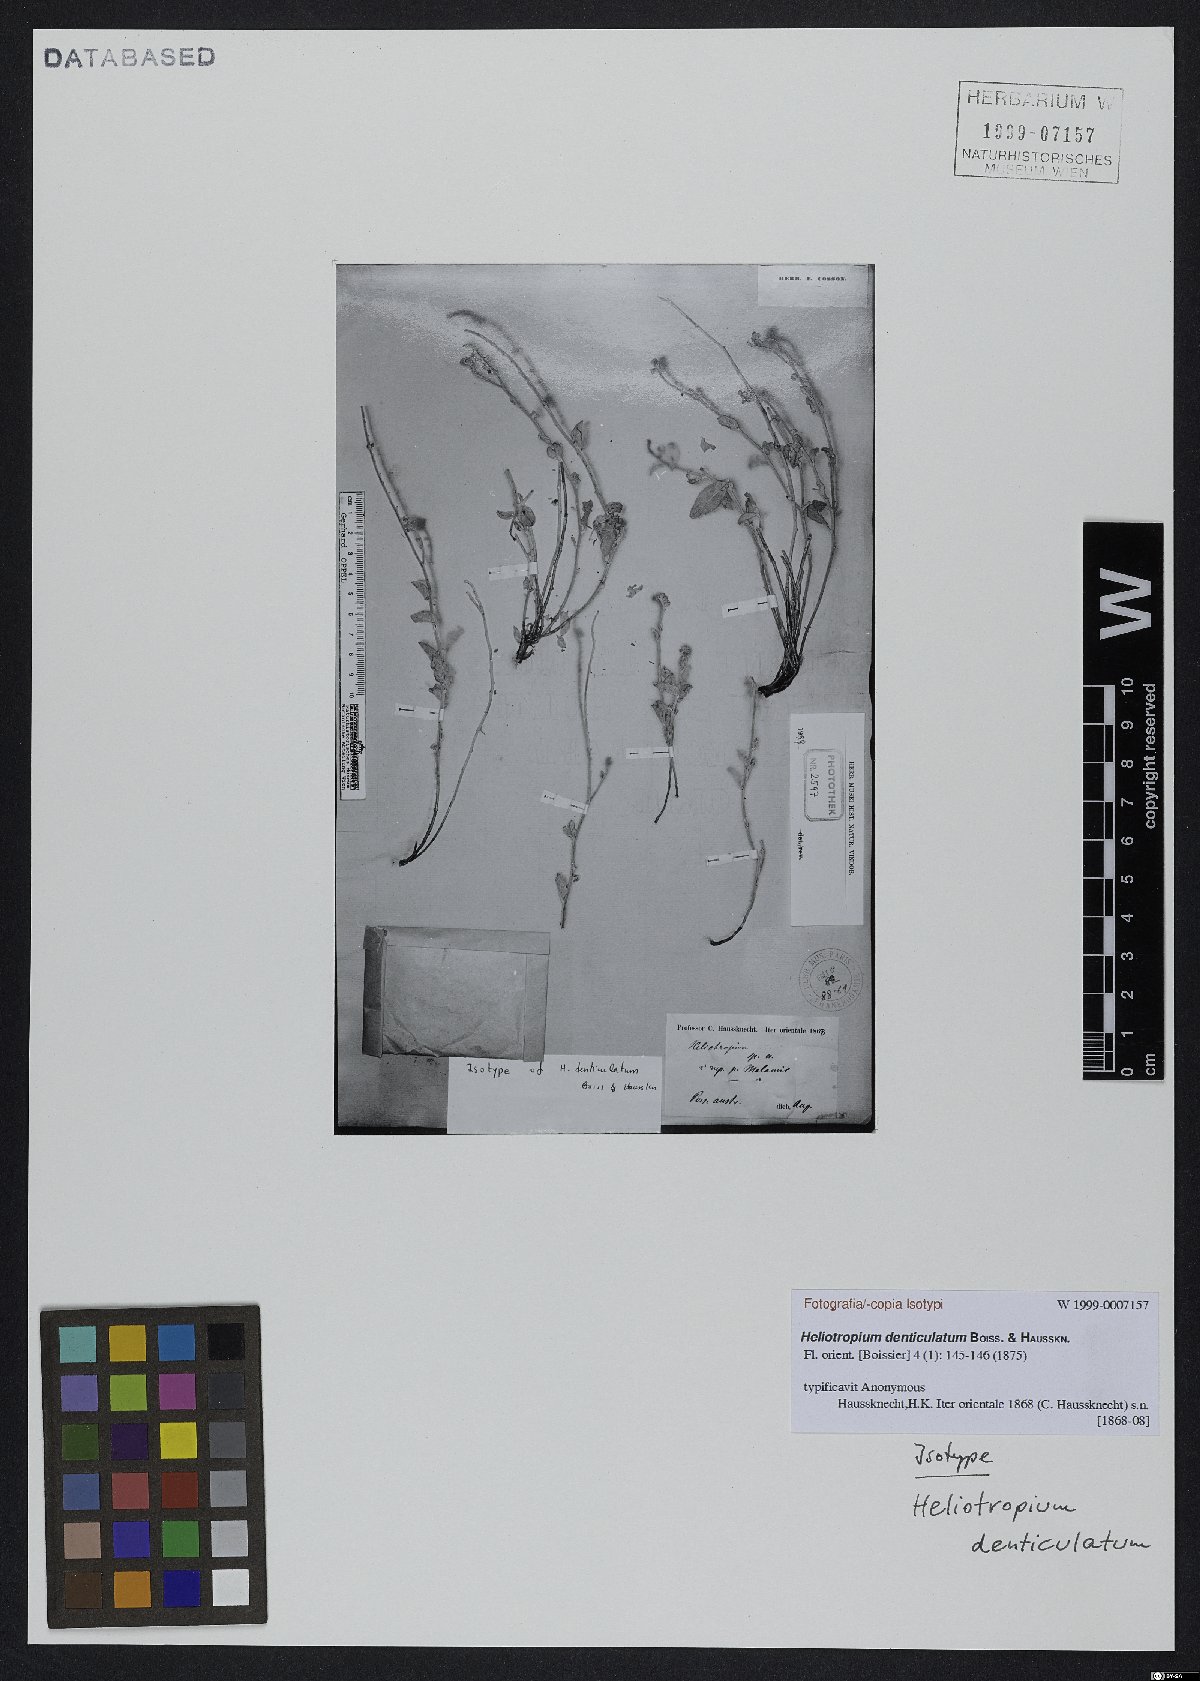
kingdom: Plantae
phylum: Tracheophyta
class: Magnoliopsida
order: Boraginales
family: Heliotropiaceae
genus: Heliotropium
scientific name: Heliotropium denticulatum
